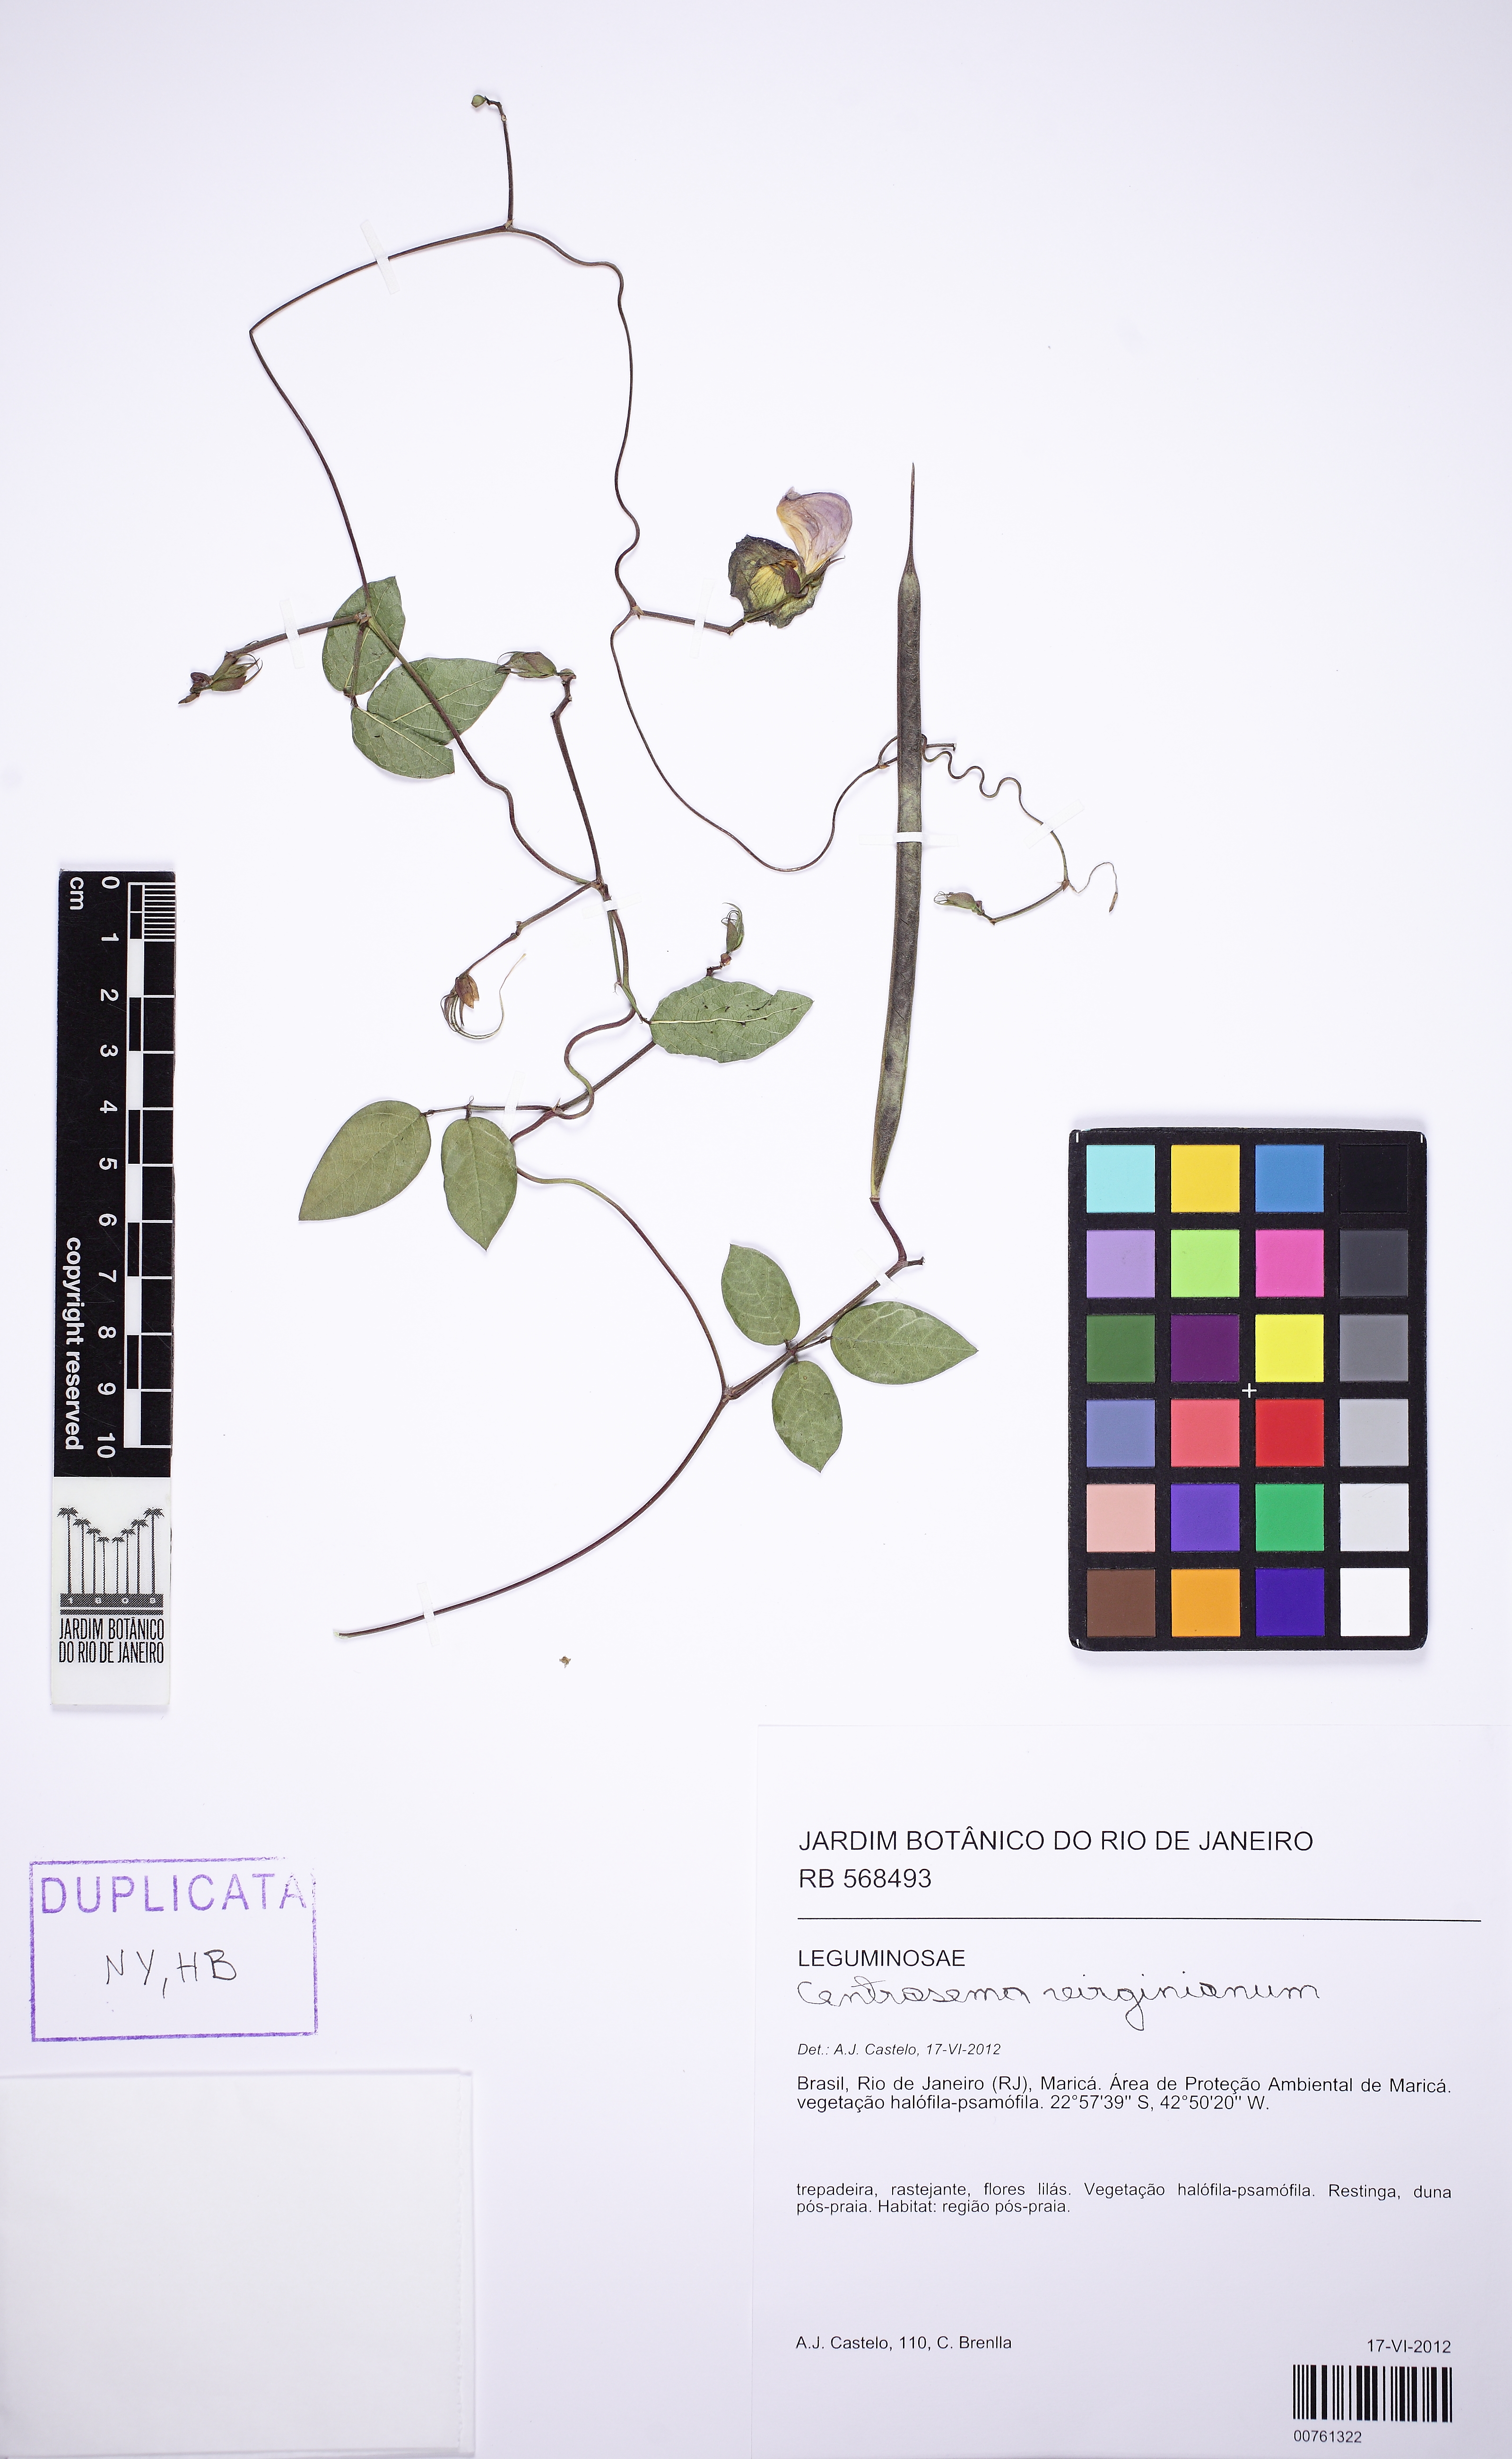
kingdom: Plantae
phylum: Tracheophyta
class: Magnoliopsida
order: Fabales
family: Fabaceae
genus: Centrosema
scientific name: Centrosema virginianum
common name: Butterfly-pea
